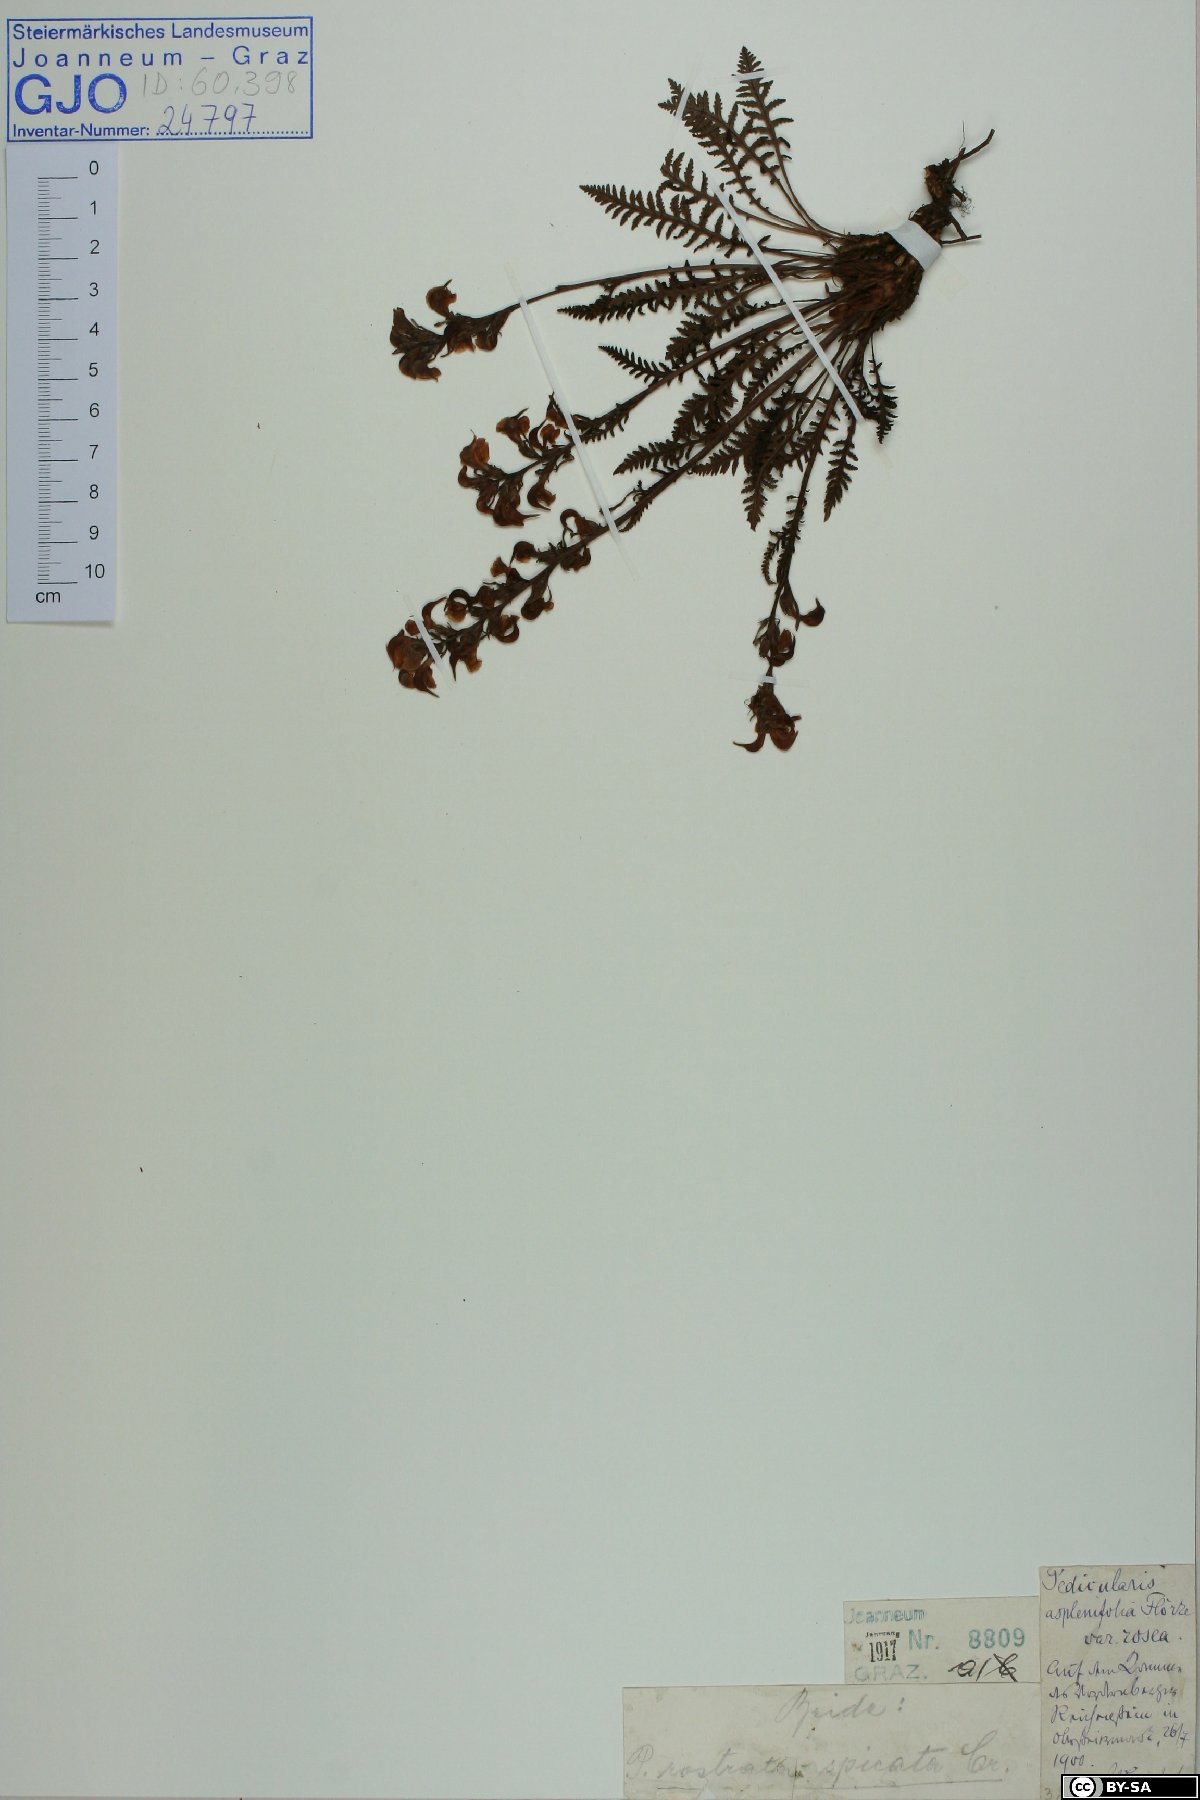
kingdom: Plantae
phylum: Tracheophyta
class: Magnoliopsida
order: Lamiales
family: Orobanchaceae
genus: Pedicularis
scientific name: Pedicularis rostratospicata
